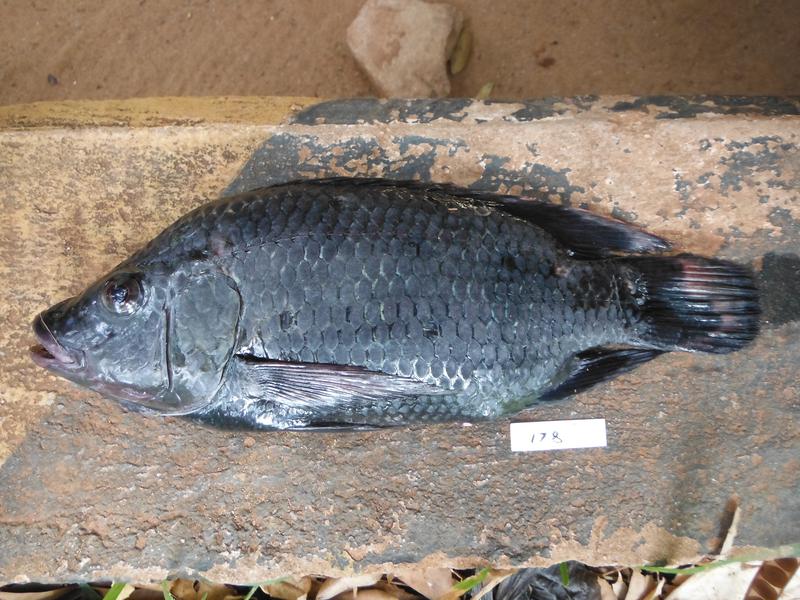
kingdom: Animalia
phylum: Chordata
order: Perciformes
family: Cichlidae
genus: Oreochromis
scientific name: Oreochromis urolepis
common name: Wami tilapia
